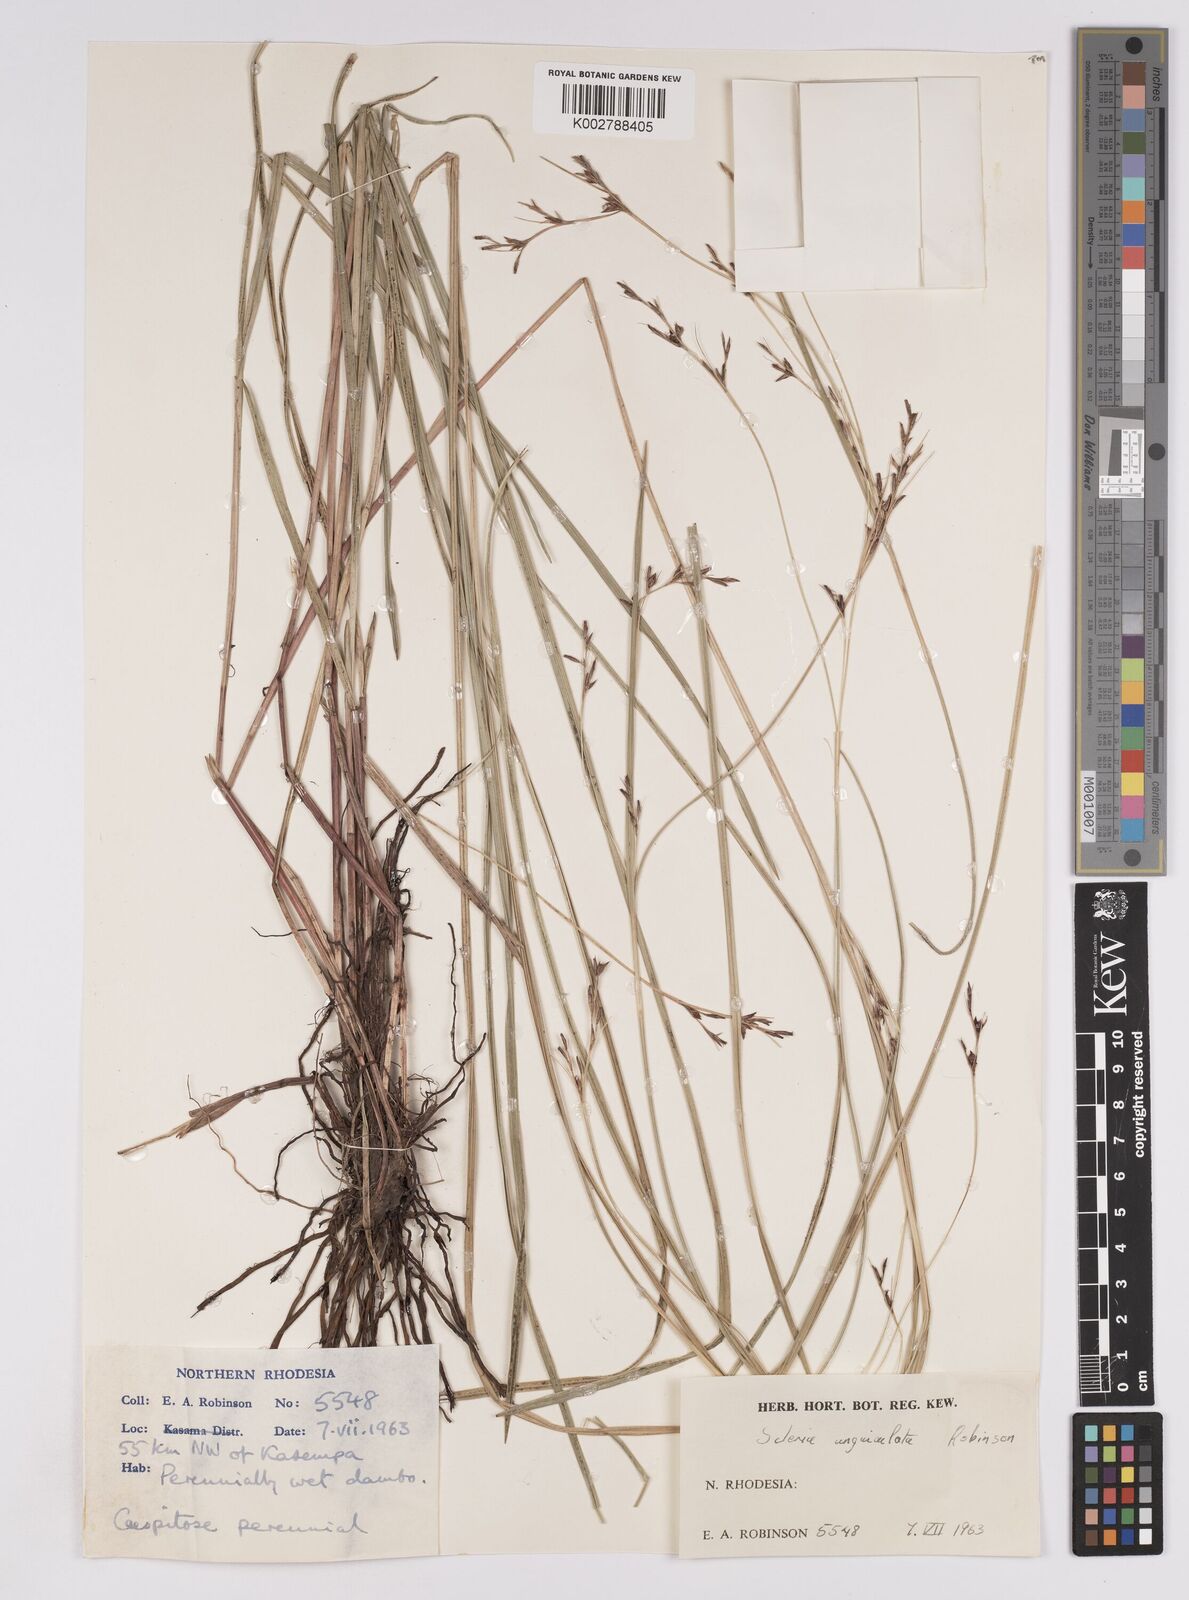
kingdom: Plantae
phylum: Tracheophyta
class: Liliopsida
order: Poales
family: Cyperaceae
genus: Scleria
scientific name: Scleria unguiculata
